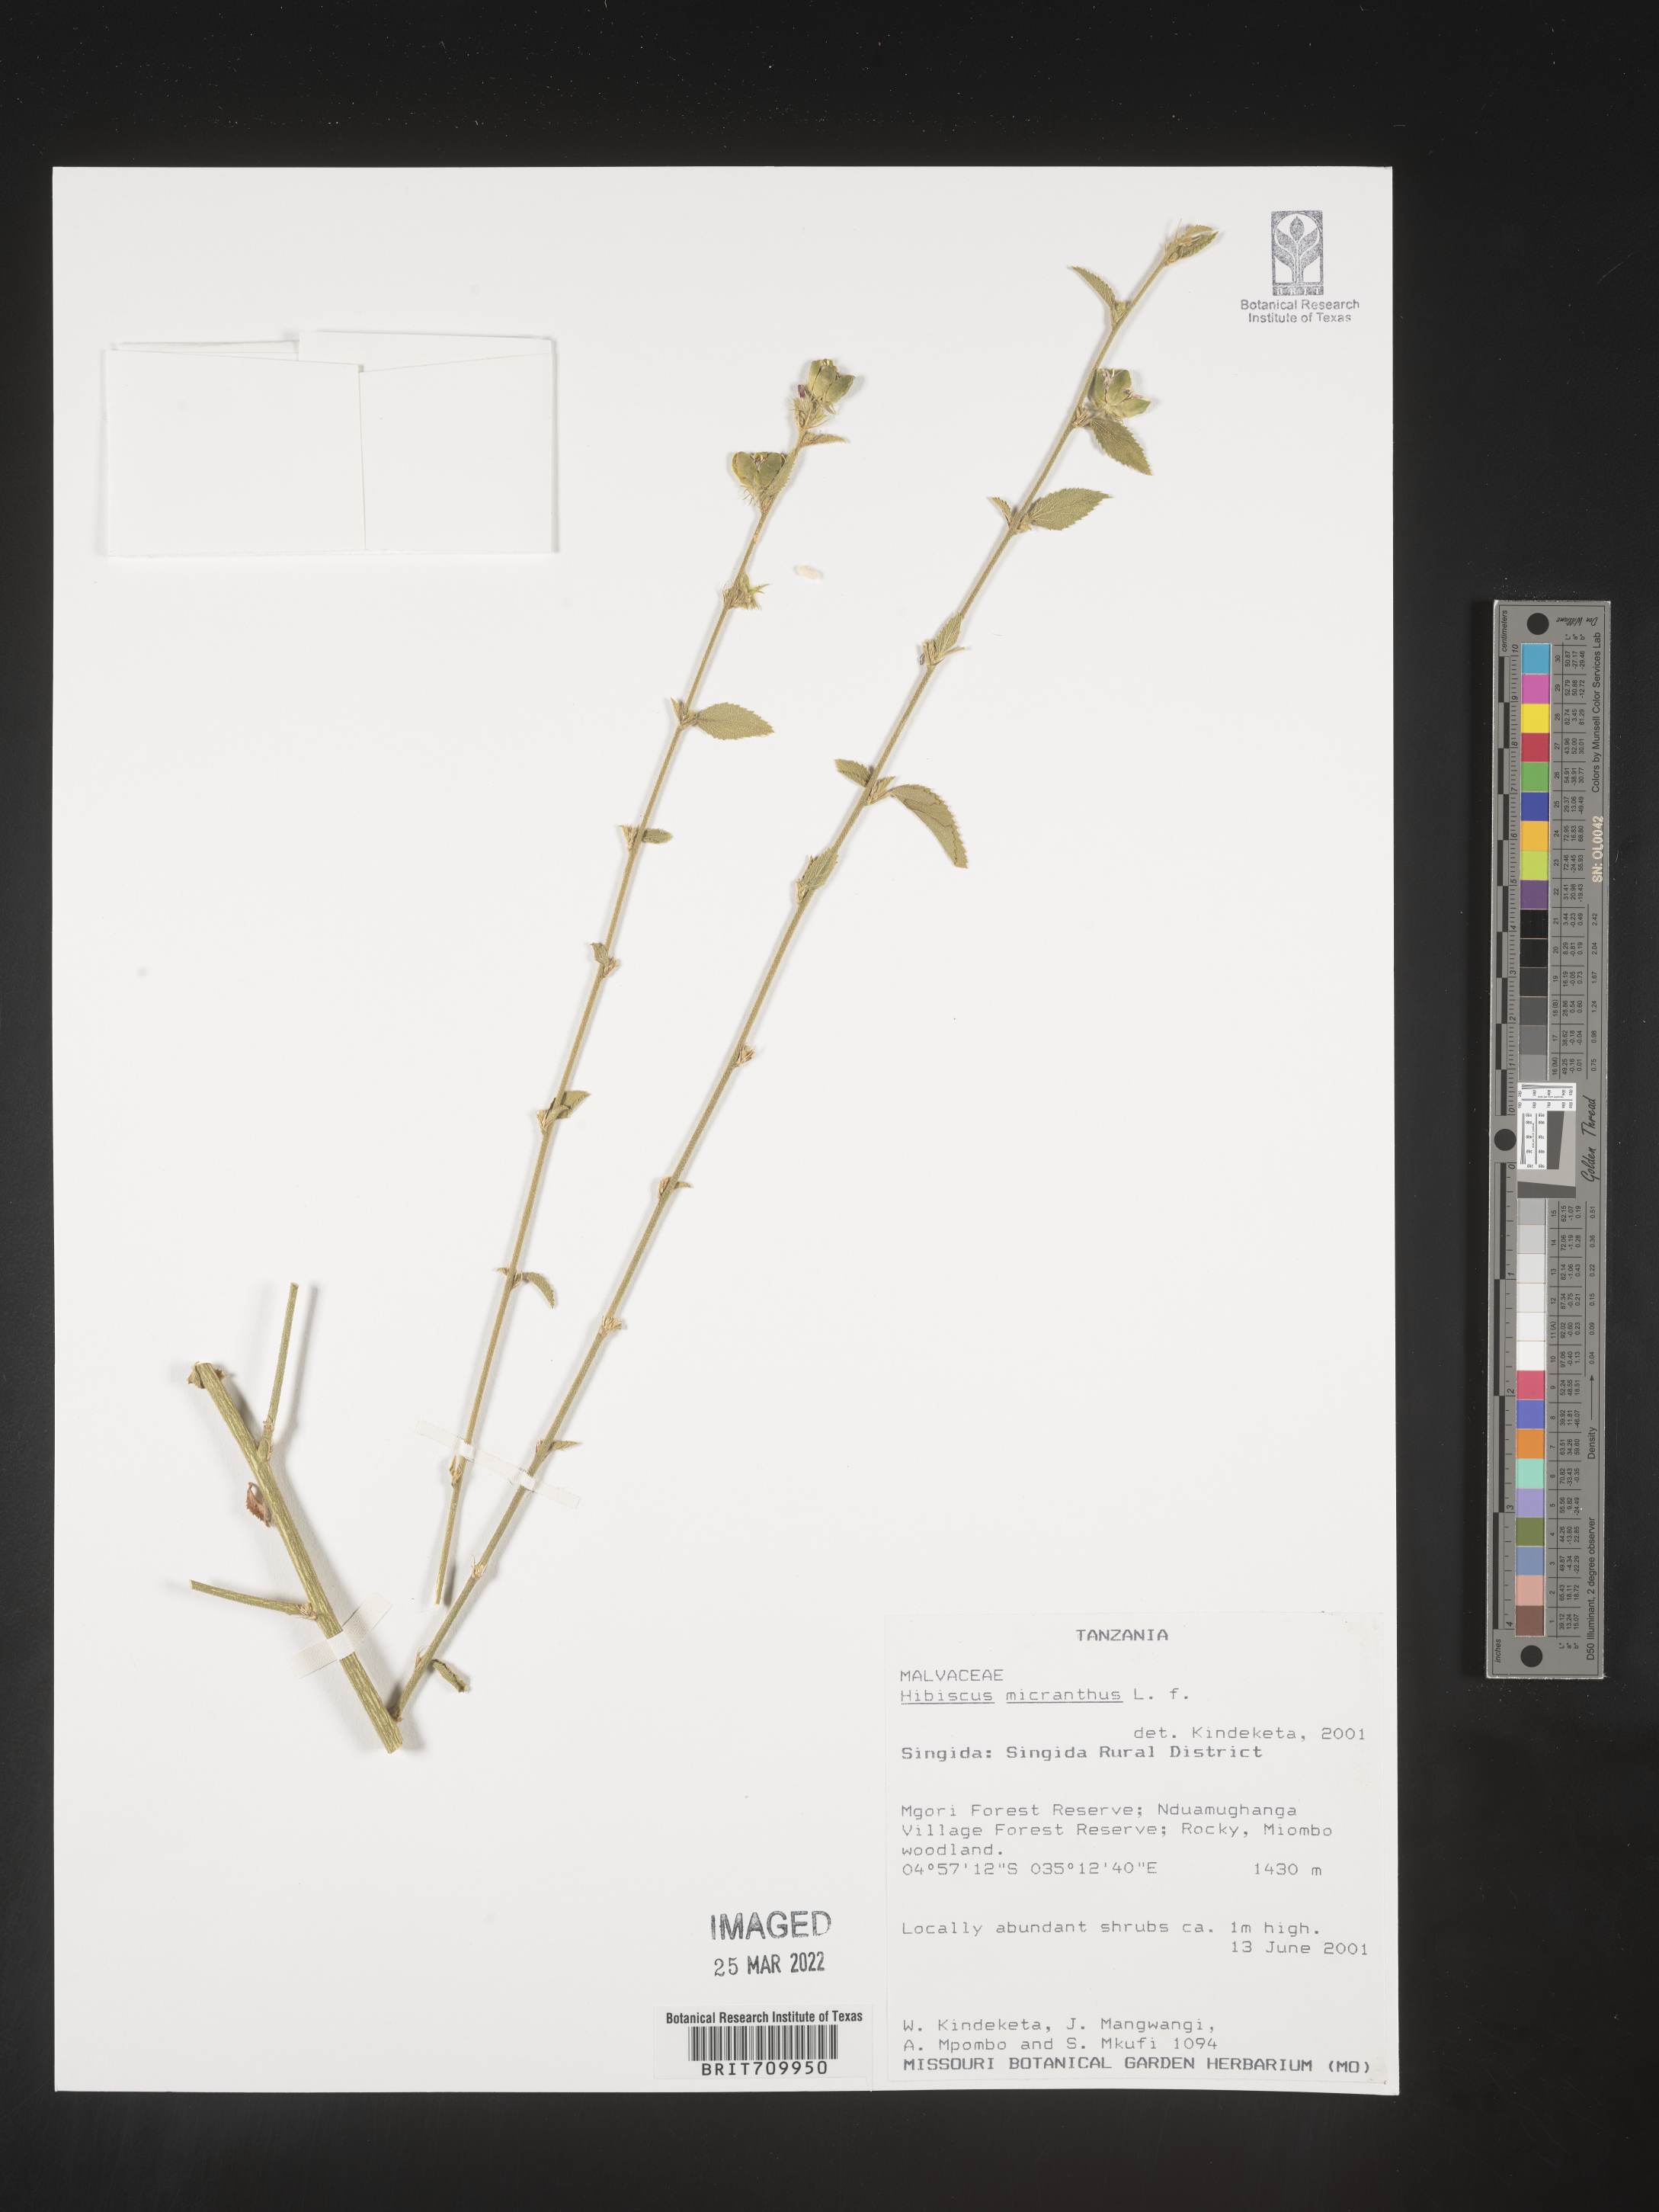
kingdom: Plantae
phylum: Tracheophyta
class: Magnoliopsida
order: Malvales
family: Malvaceae
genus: Hibiscus
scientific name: Hibiscus
